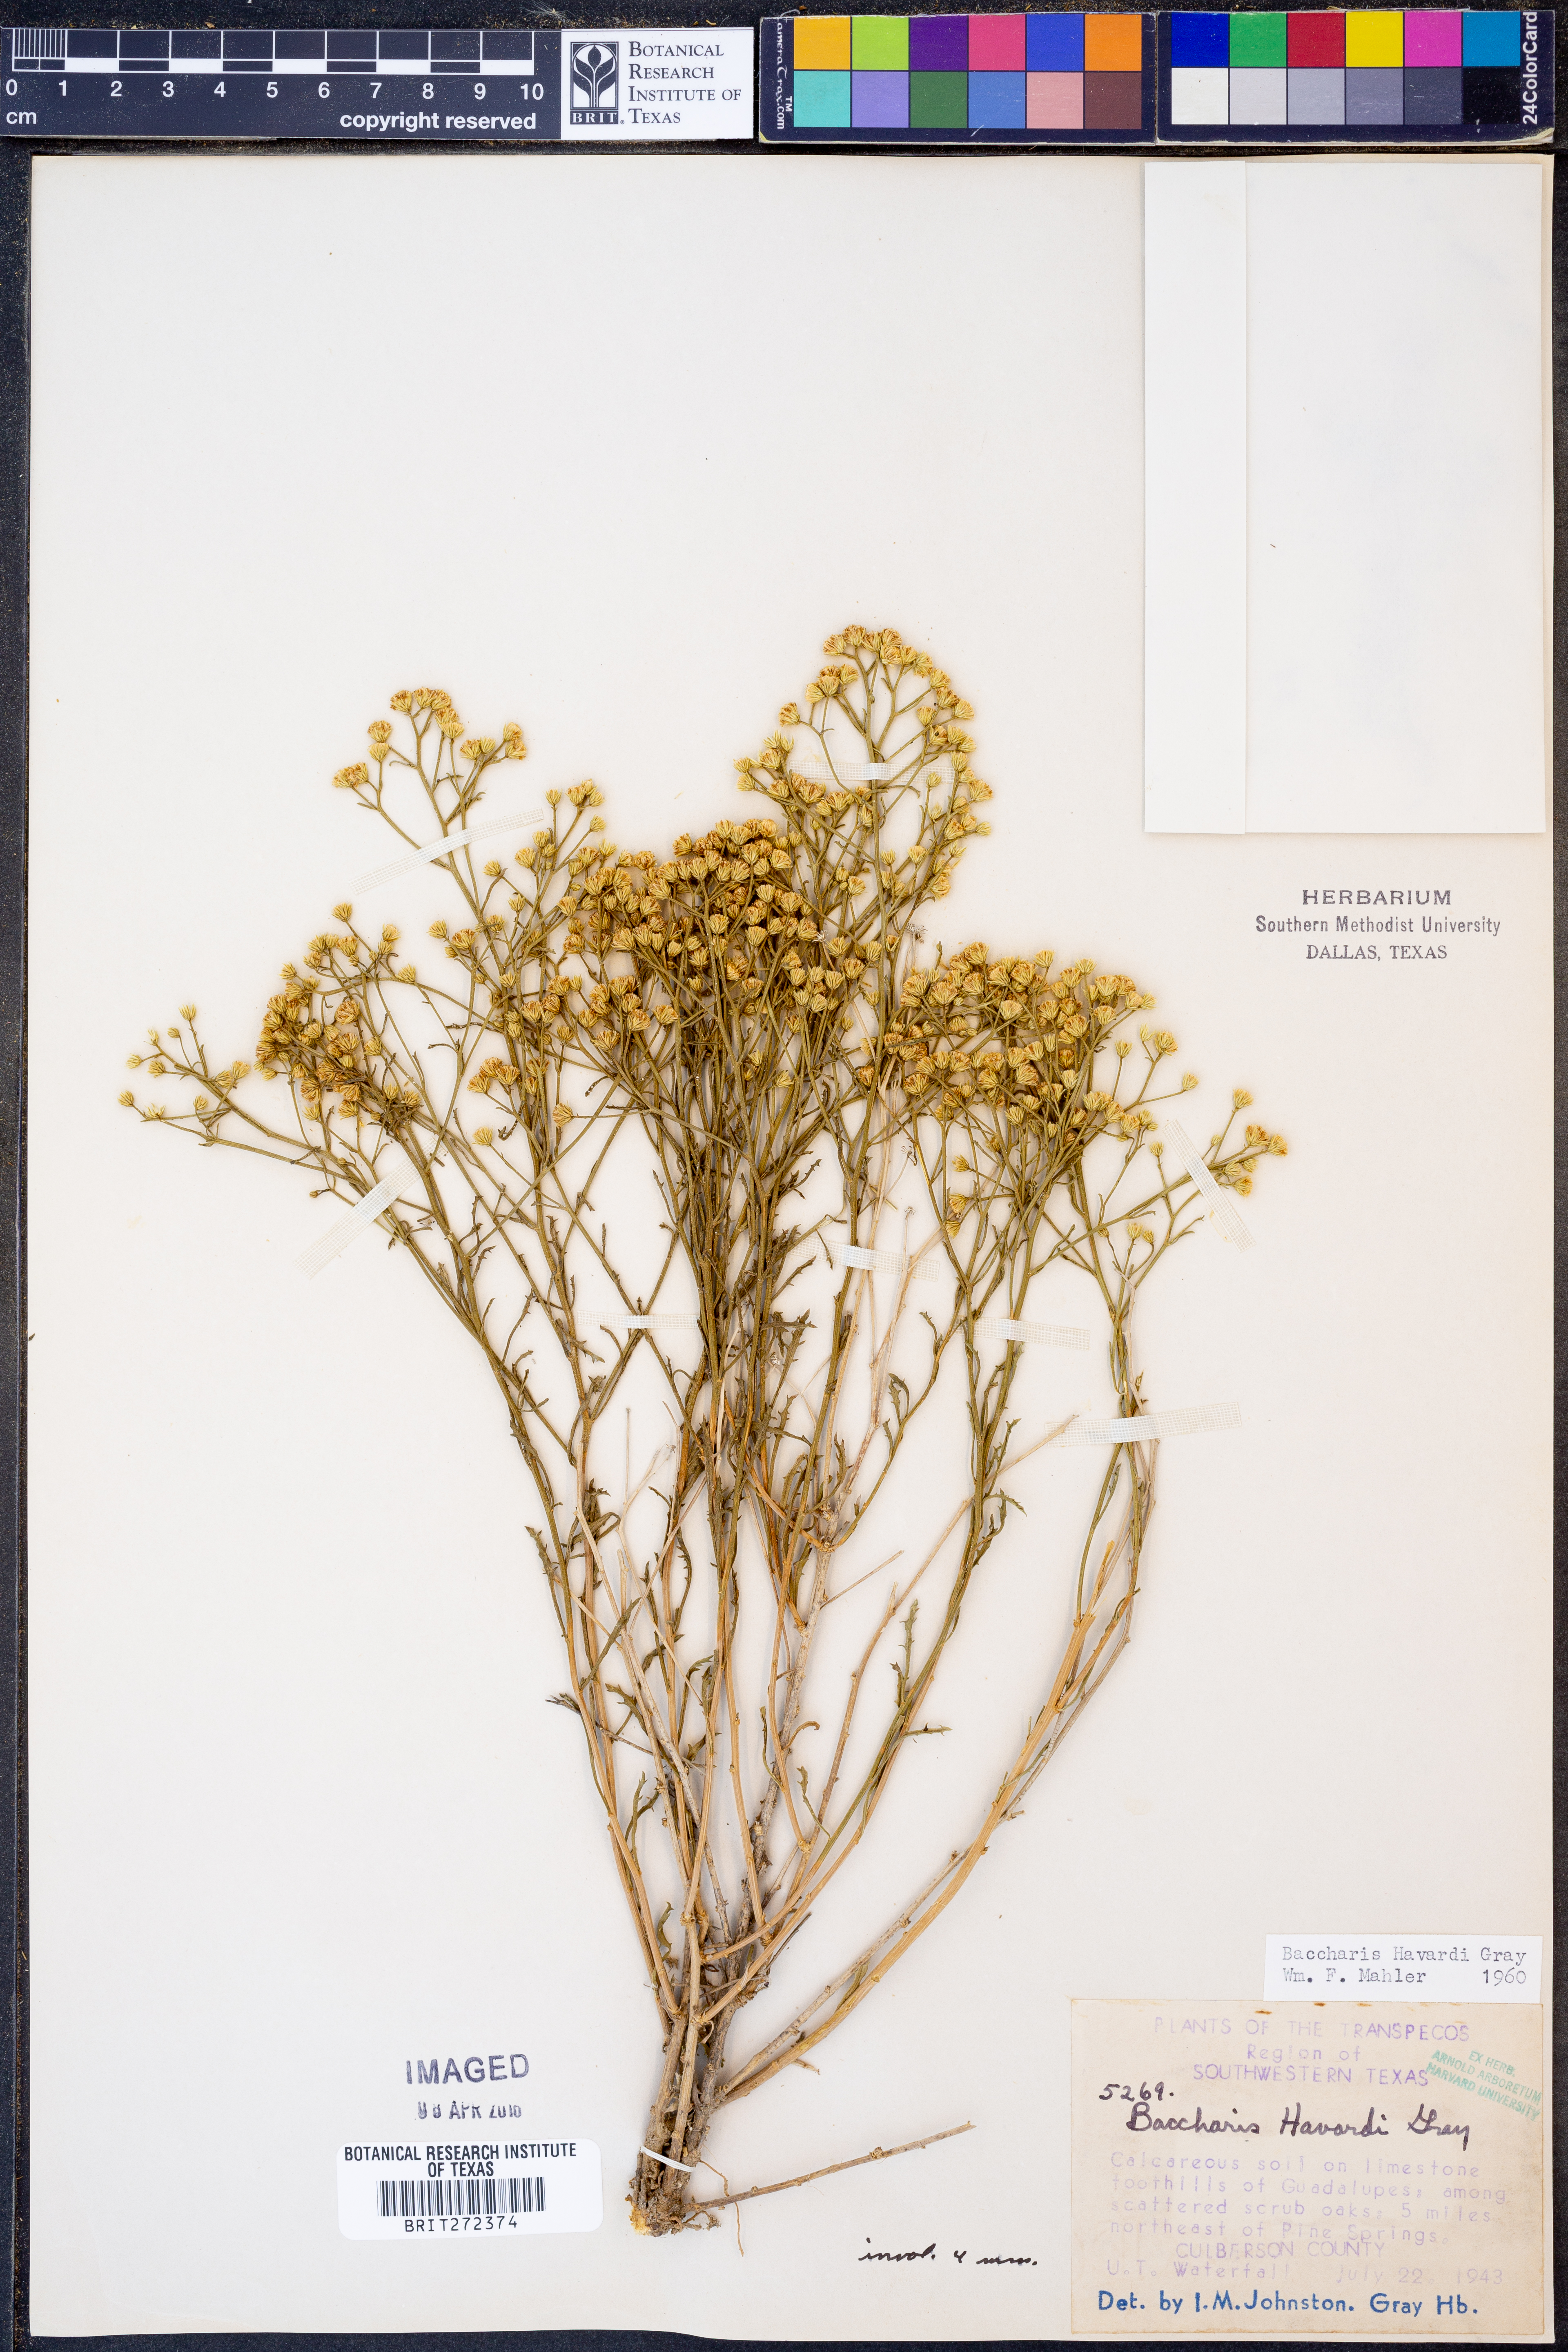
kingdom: Plantae
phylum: Tracheophyta
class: Magnoliopsida
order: Asterales
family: Asteraceae
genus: Baccharis
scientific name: Baccharis havardii
